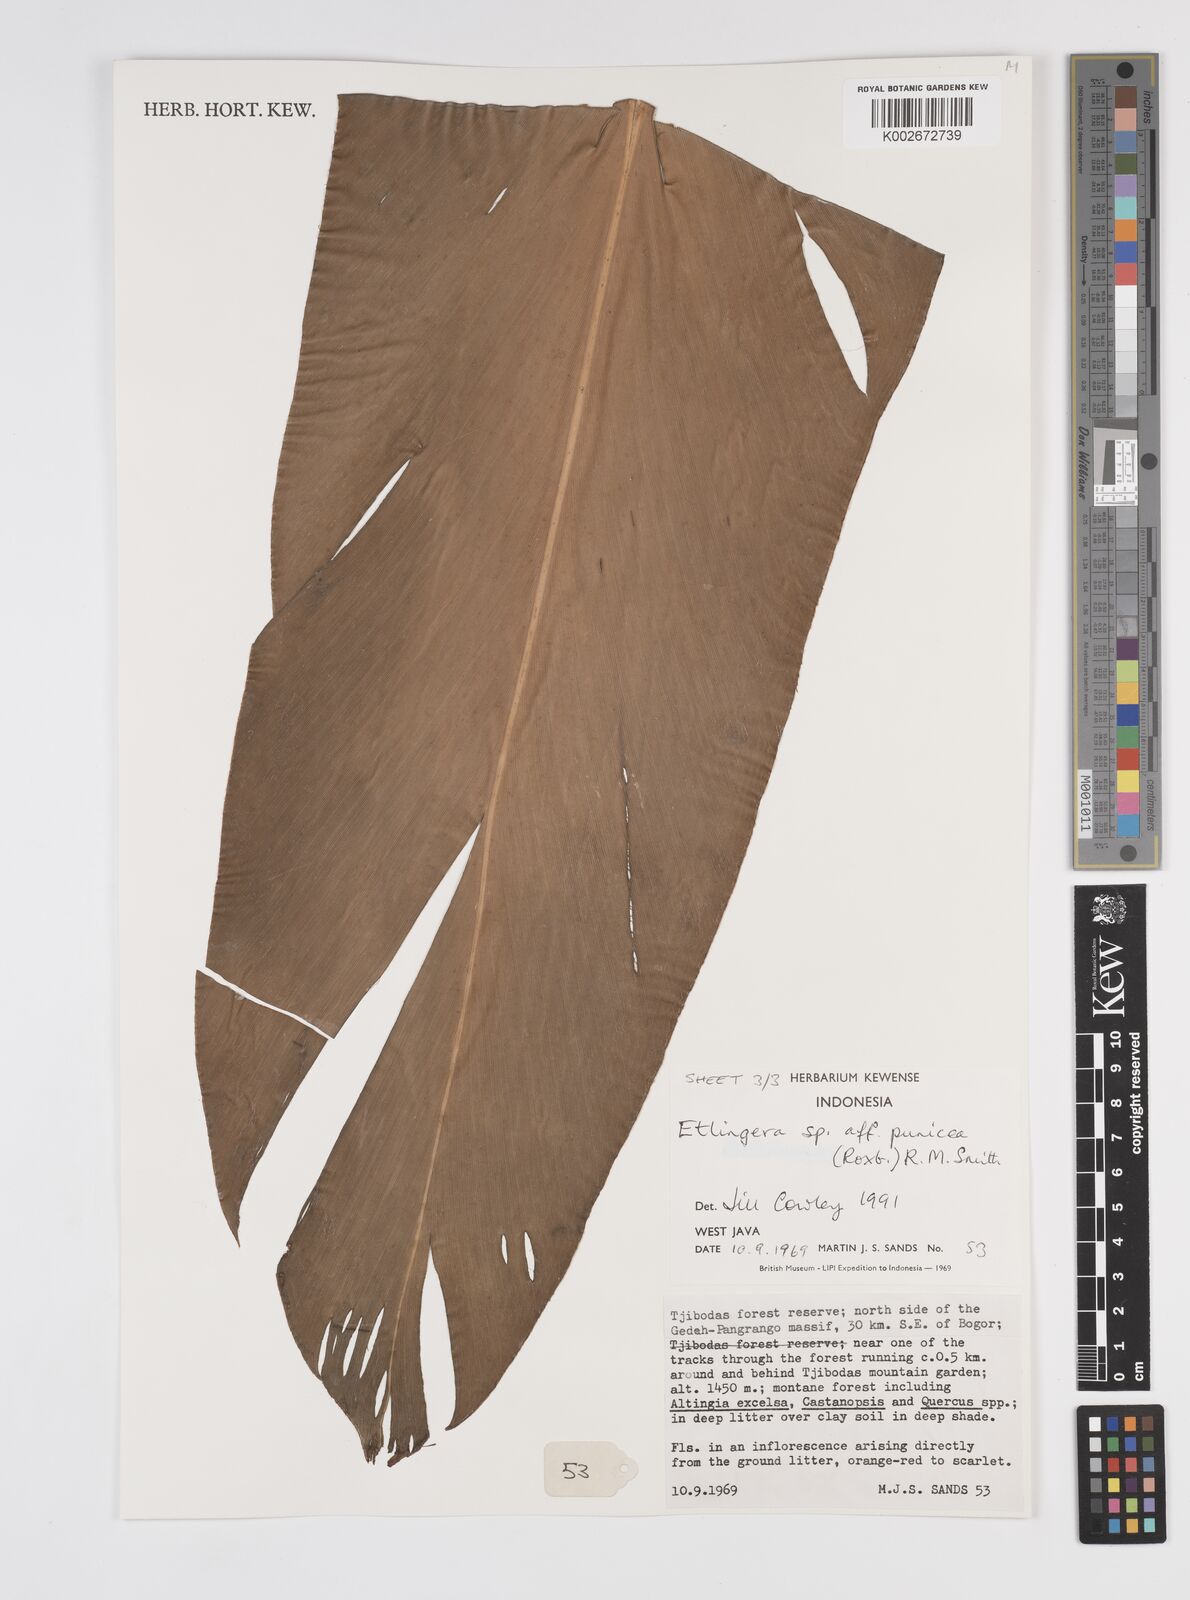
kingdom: Plantae
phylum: Tracheophyta
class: Liliopsida
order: Zingiberales
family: Zingiberaceae
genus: Etlingera
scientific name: Etlingera punicea
